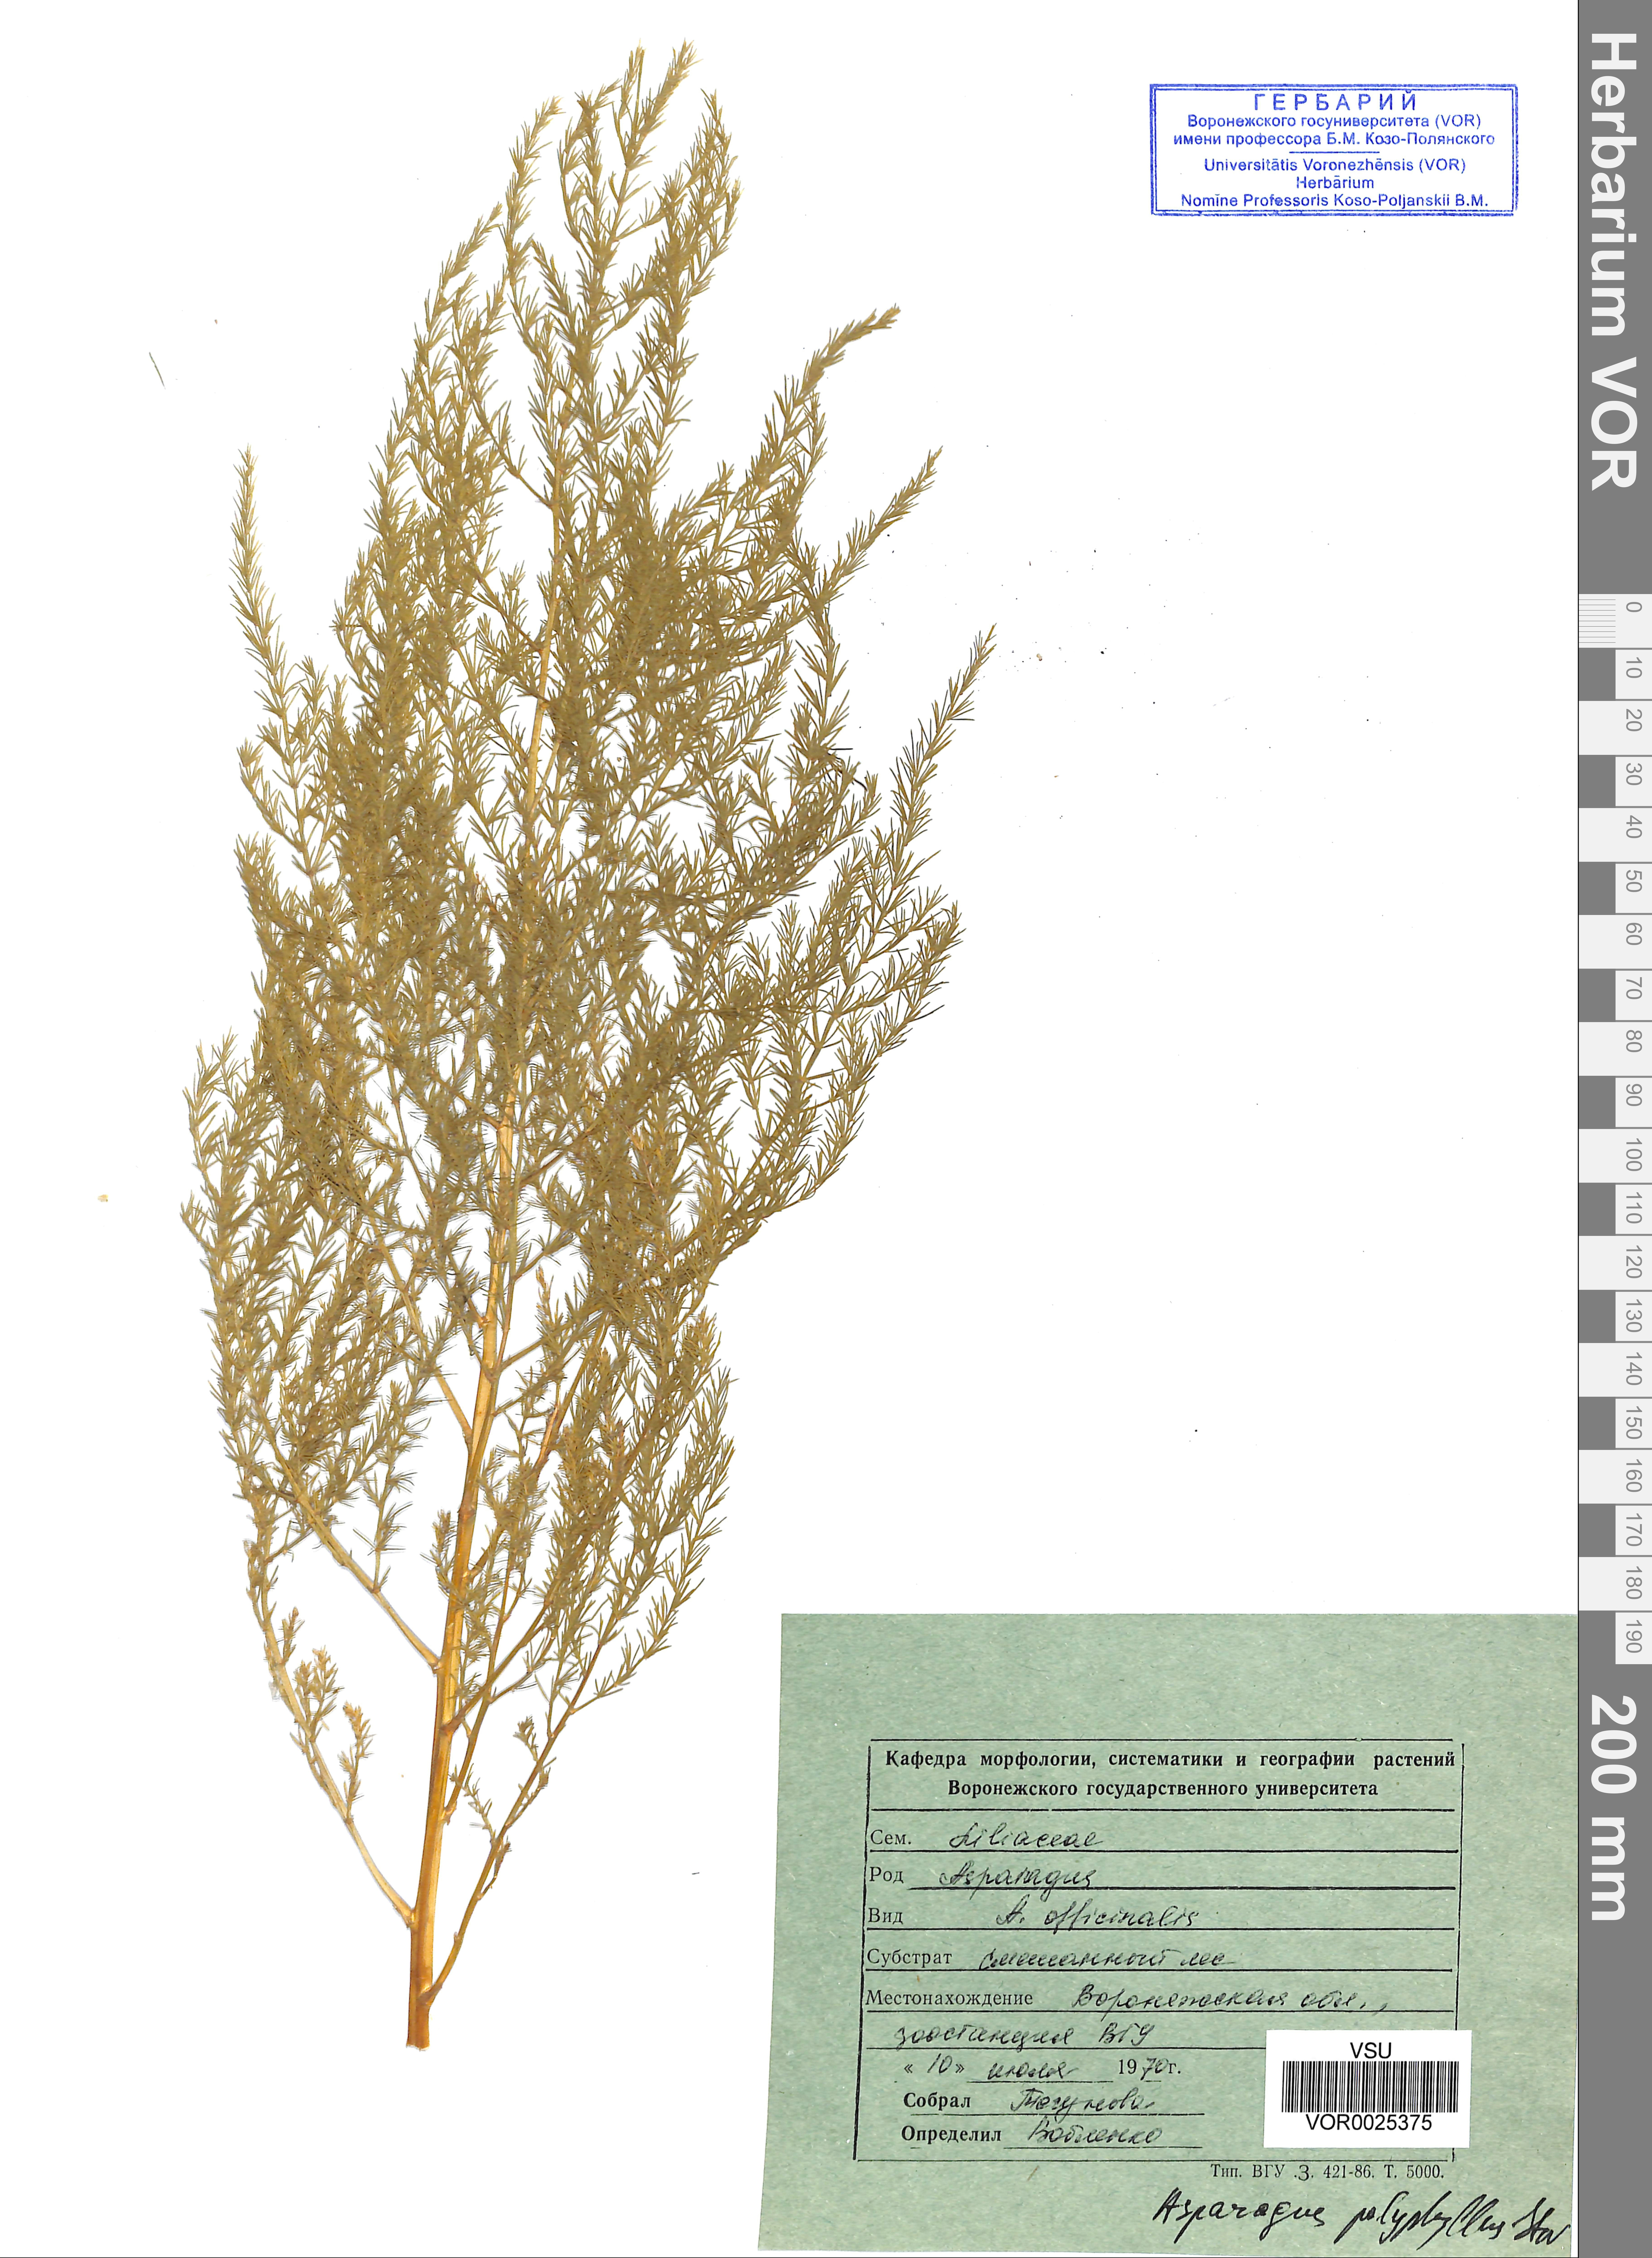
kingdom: Plantae
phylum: Tracheophyta
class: Liliopsida
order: Asparagales
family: Asparagaceae
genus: Asparagus
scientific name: Asparagus officinalis
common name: Garden asparagus
